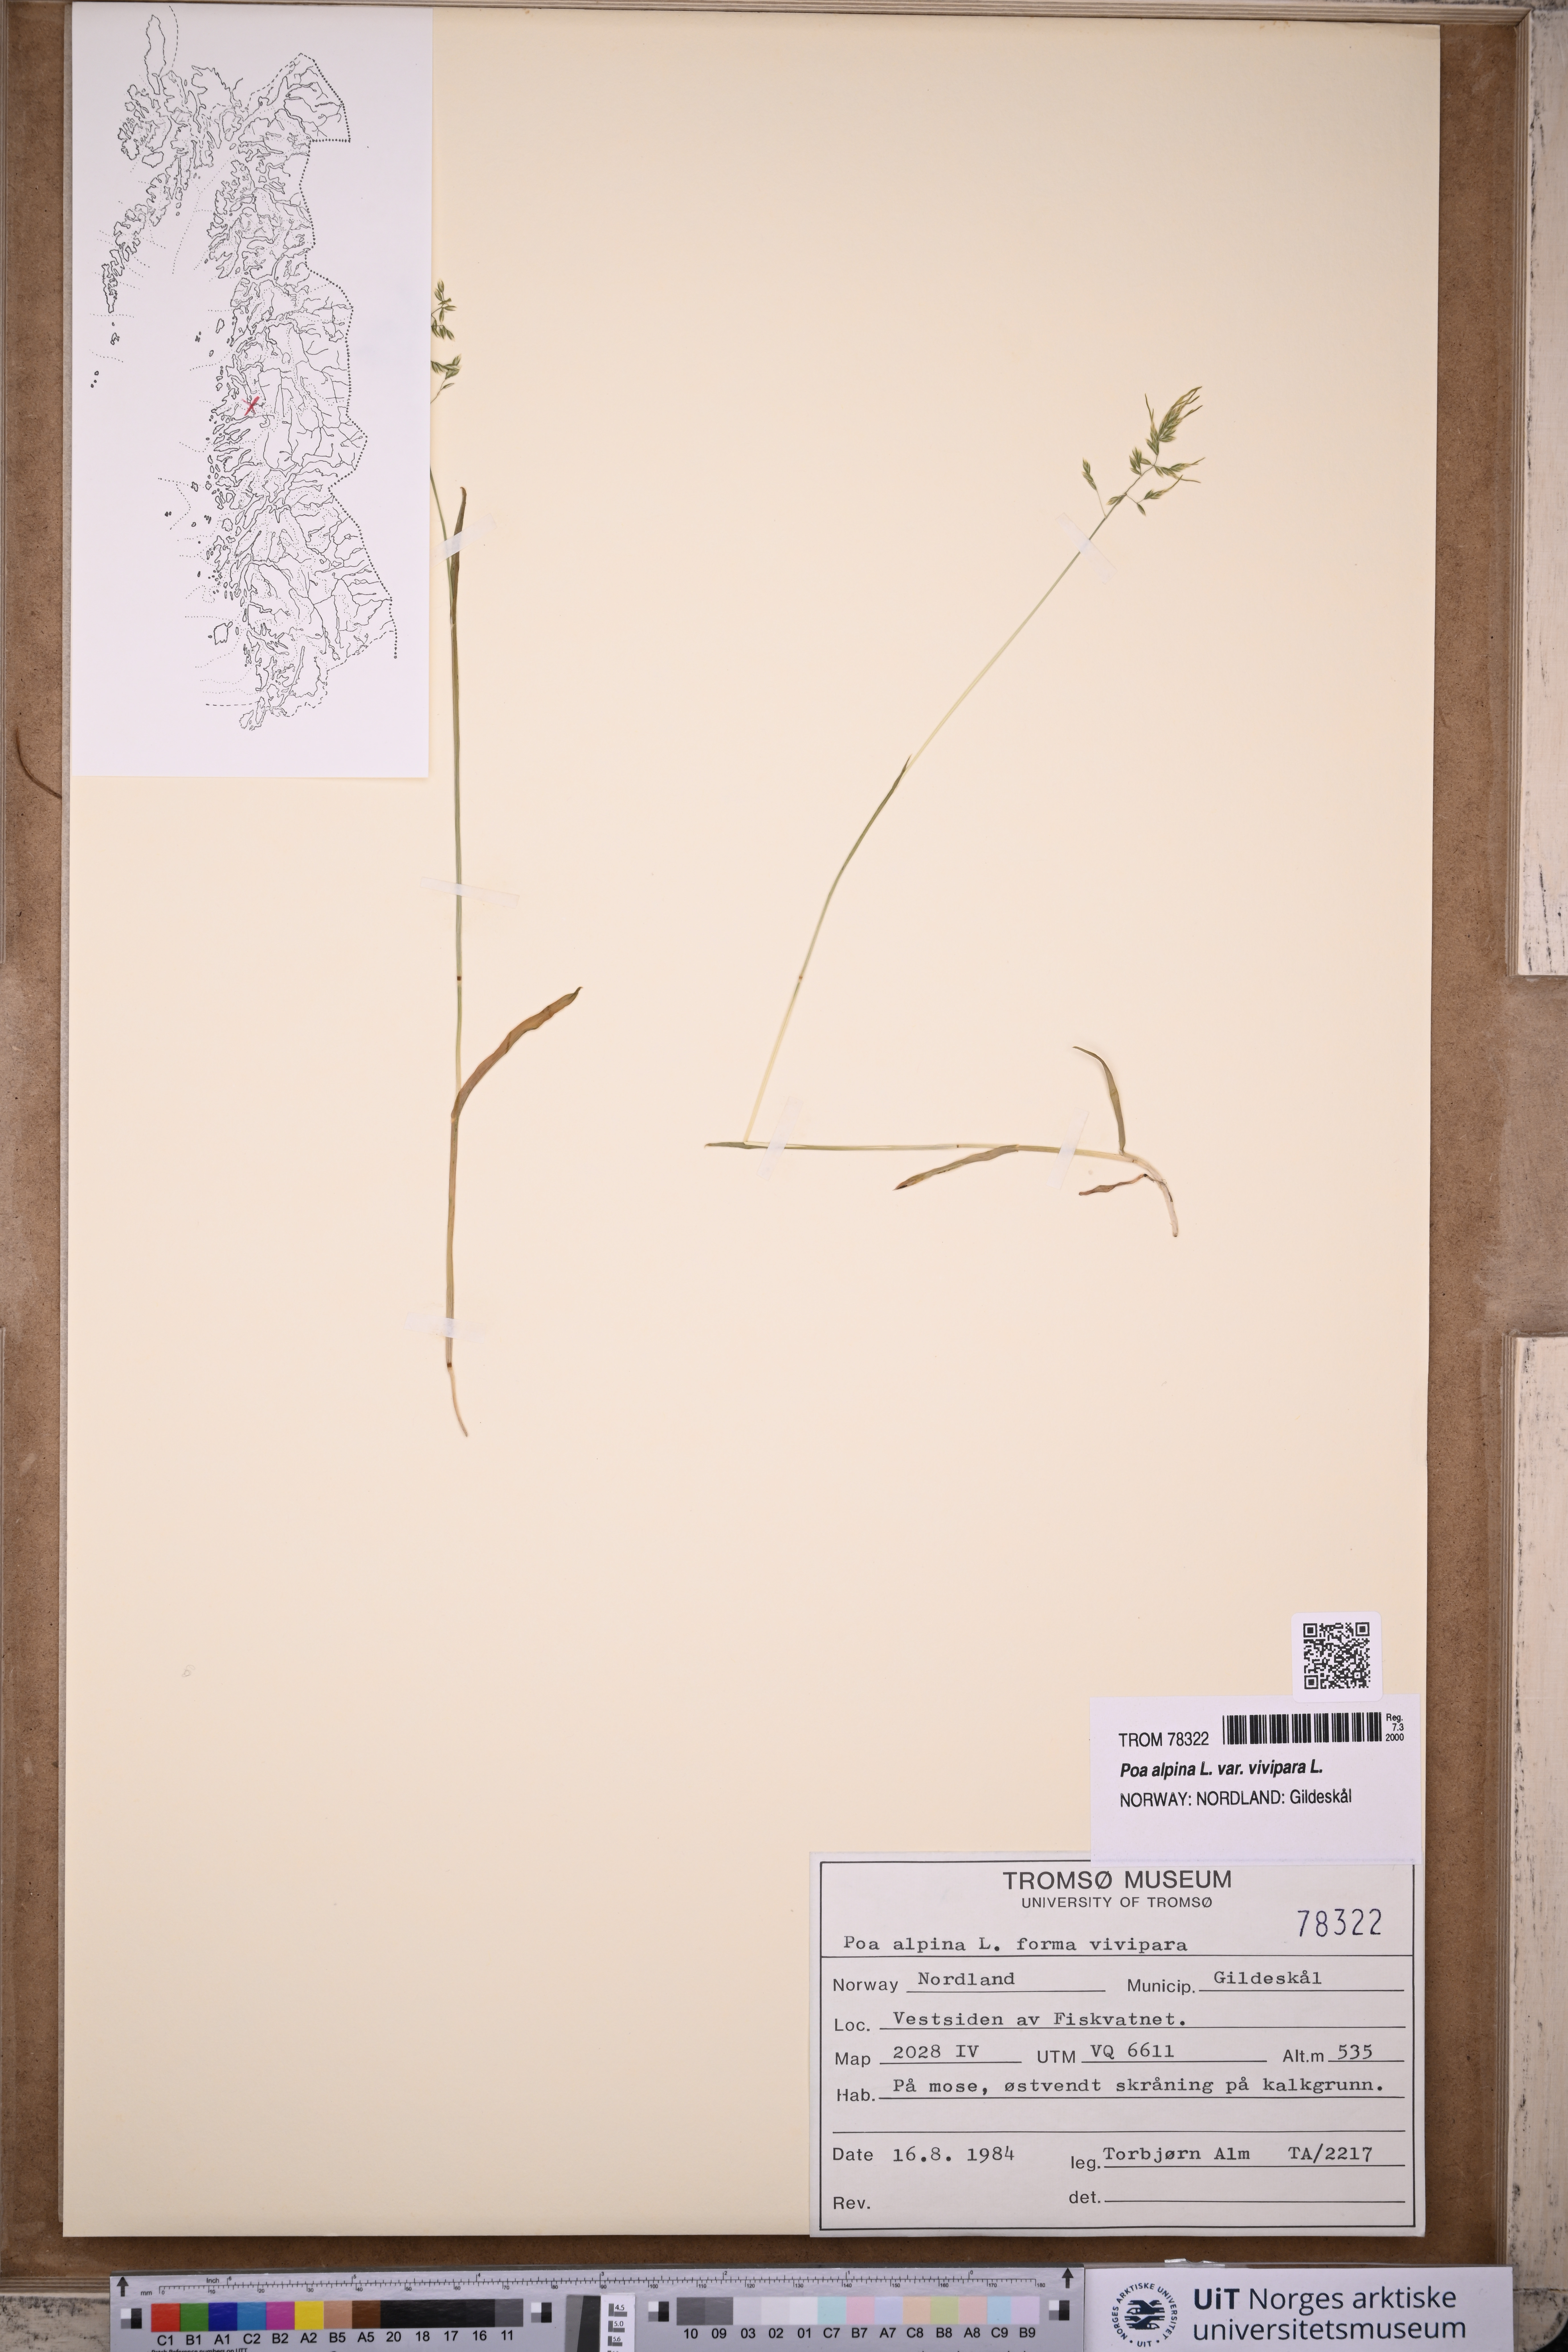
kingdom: Plantae
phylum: Tracheophyta
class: Liliopsida
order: Poales
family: Poaceae
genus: Poa
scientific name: Poa alpina
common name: Alpine bluegrass
